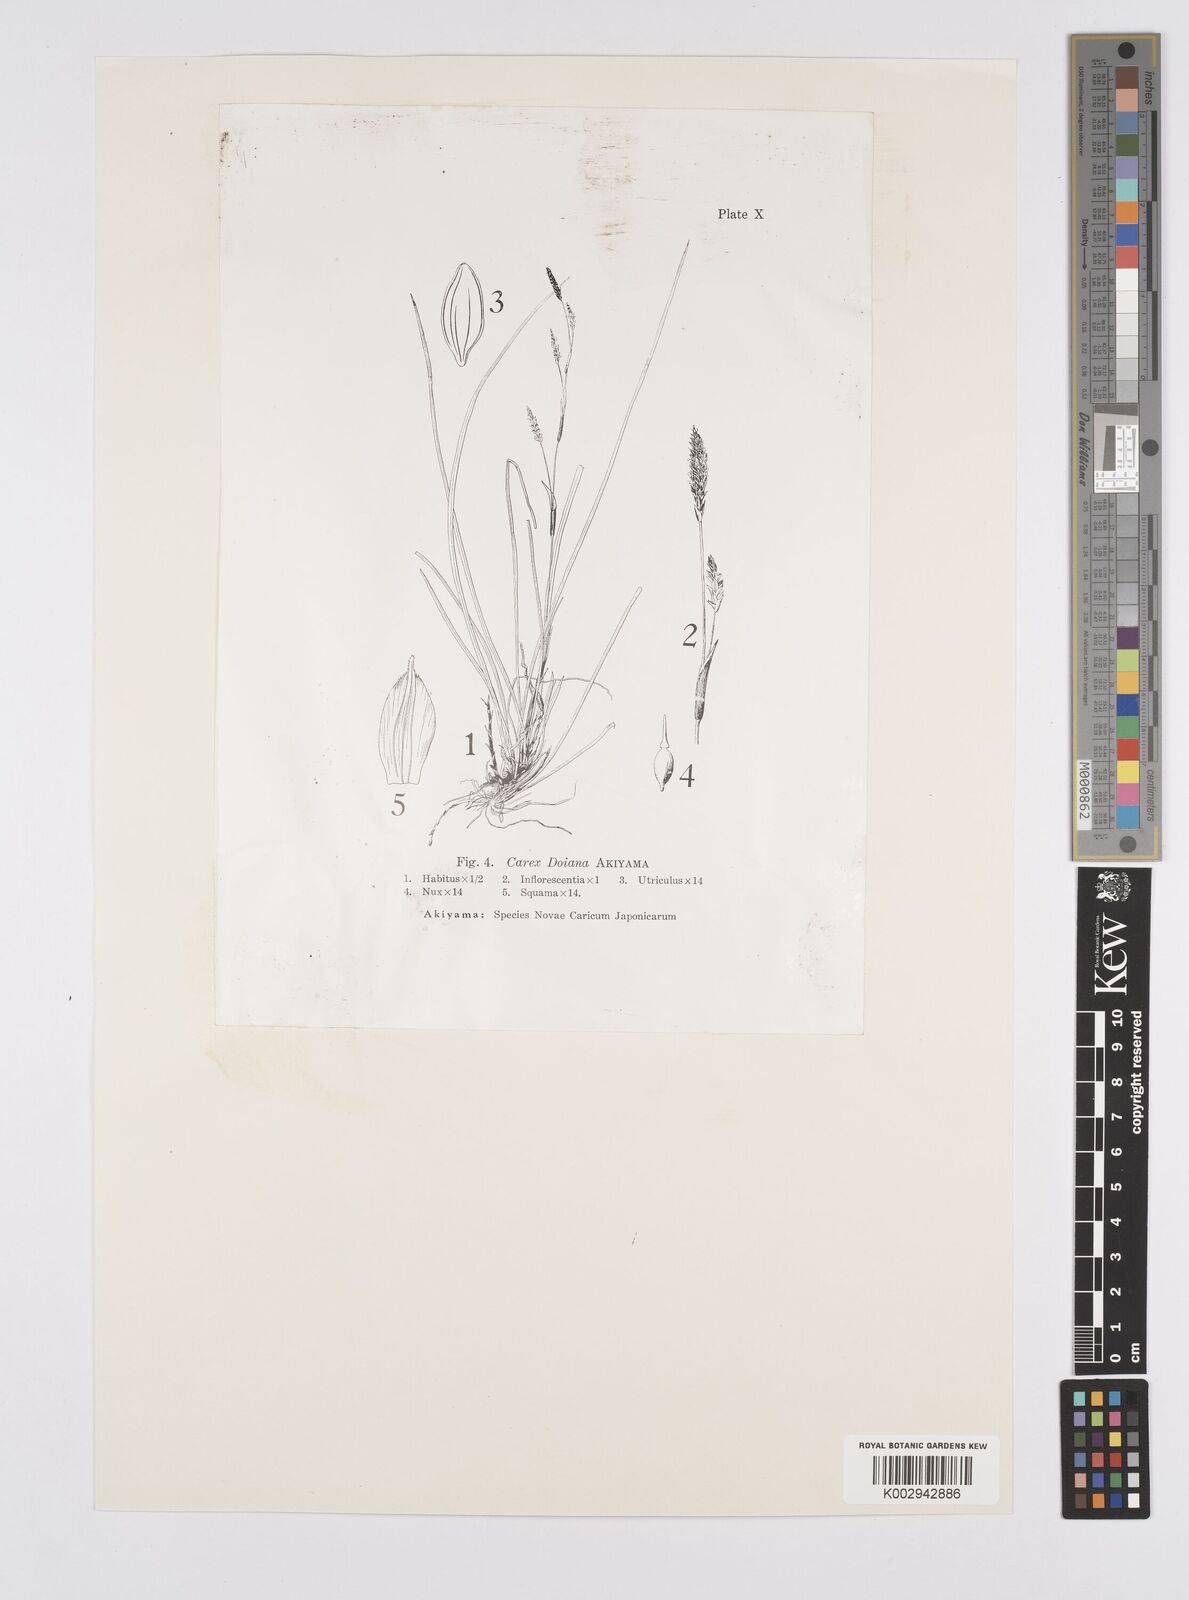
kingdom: Plantae
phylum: Tracheophyta
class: Liliopsida
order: Poales
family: Cyperaceae
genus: Carex
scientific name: Carex conica
